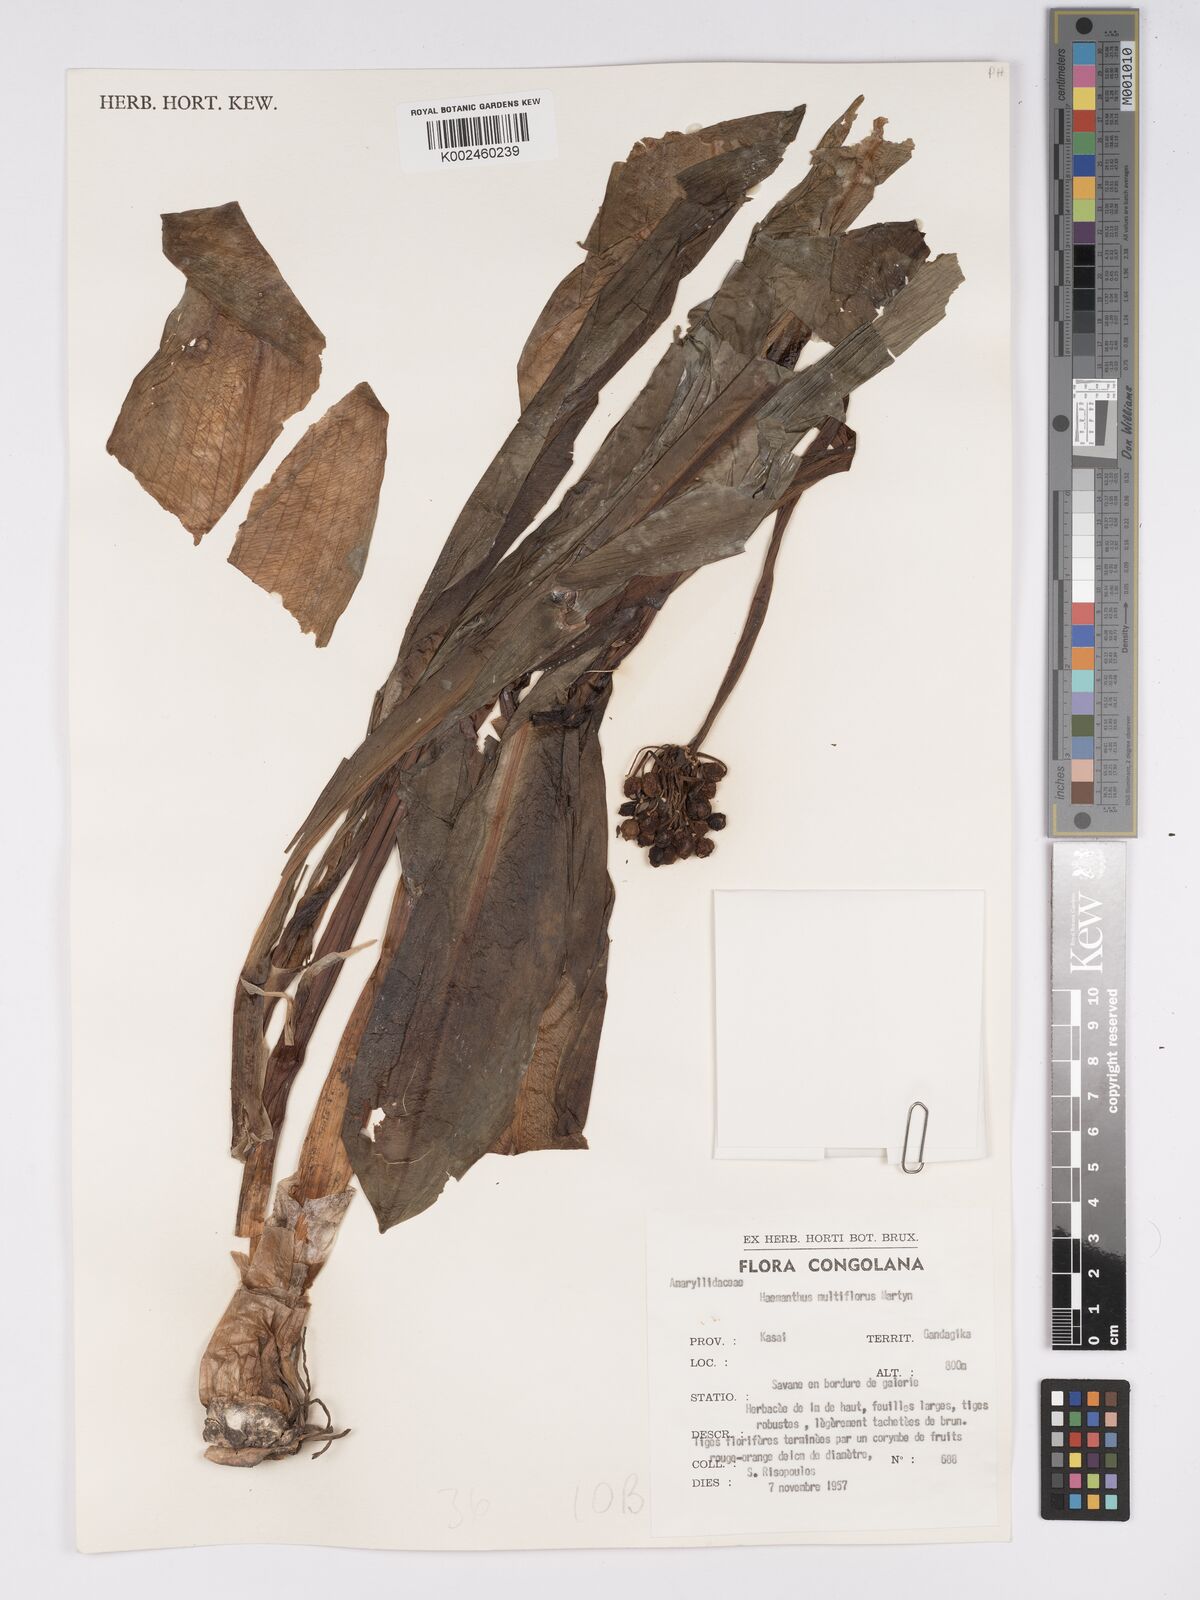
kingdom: Plantae
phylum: Tracheophyta
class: Liliopsida
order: Asparagales
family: Amaryllidaceae
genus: Scadoxus
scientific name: Scadoxus multiflorus
